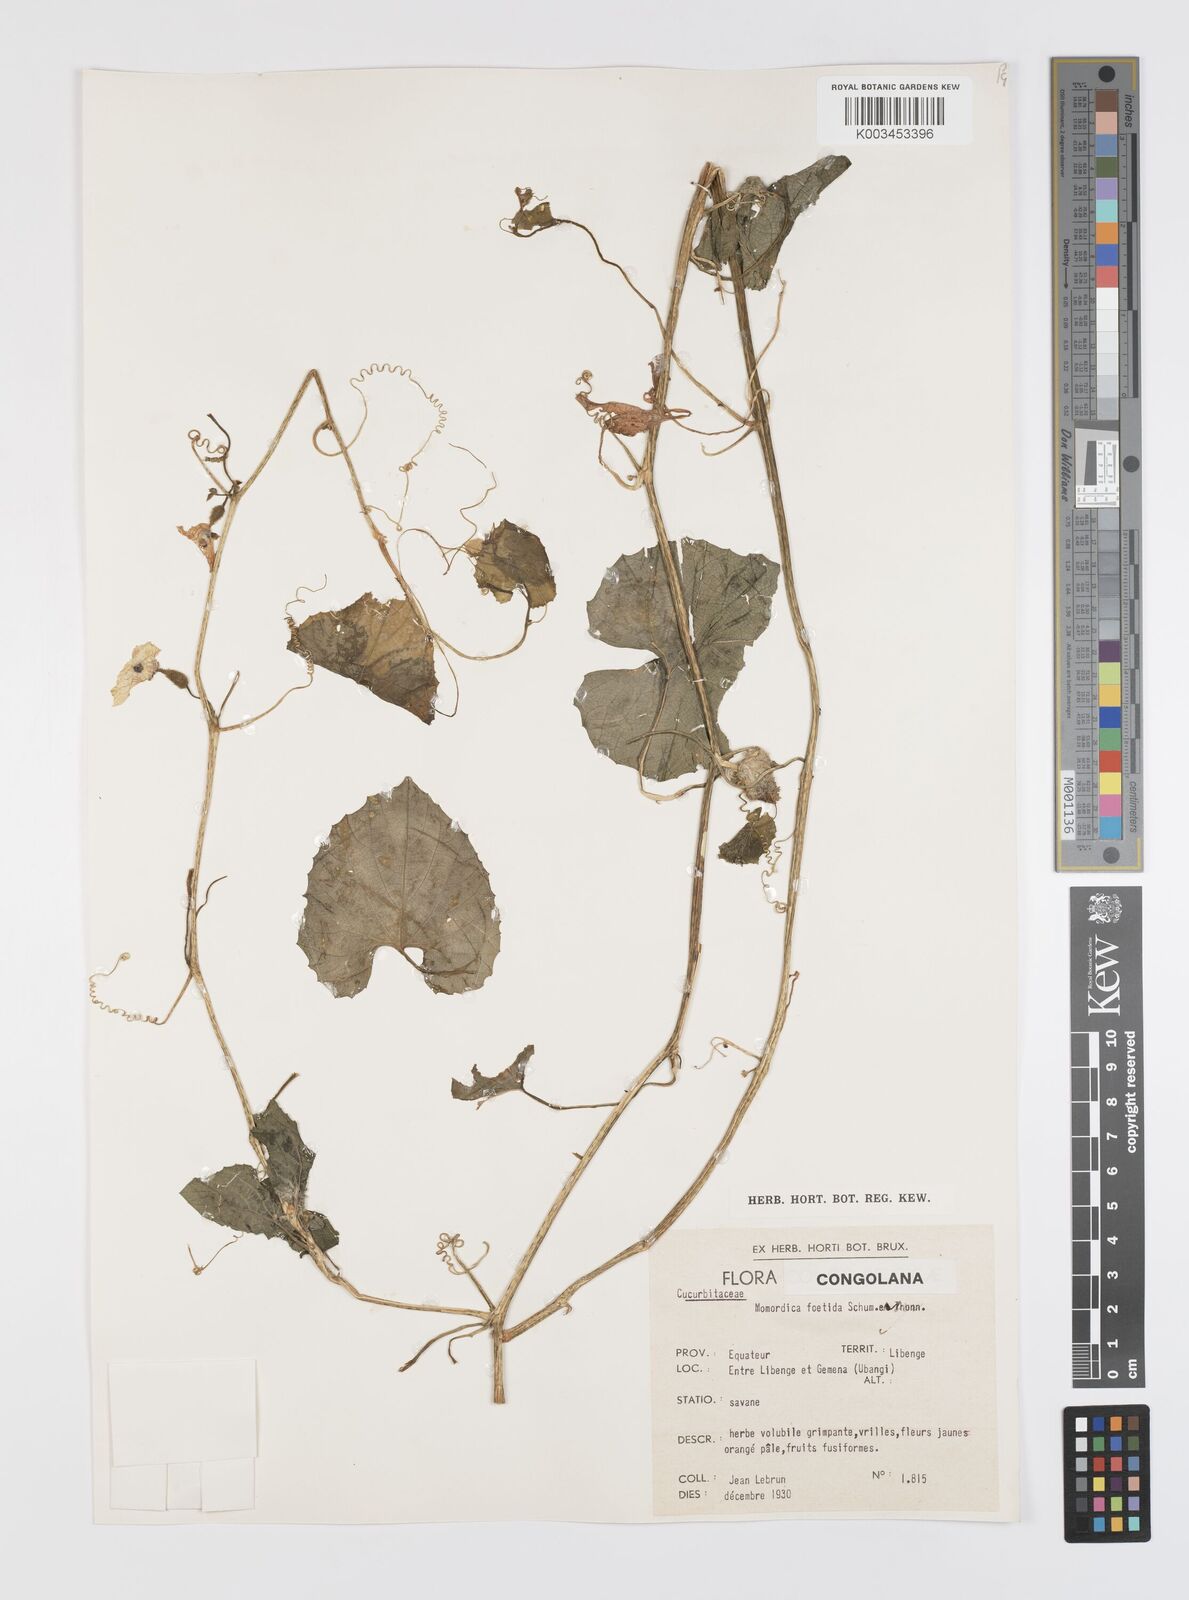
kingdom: Plantae
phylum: Tracheophyta
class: Magnoliopsida
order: Cucurbitales
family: Cucurbitaceae
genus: Momordica
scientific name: Momordica foetida
